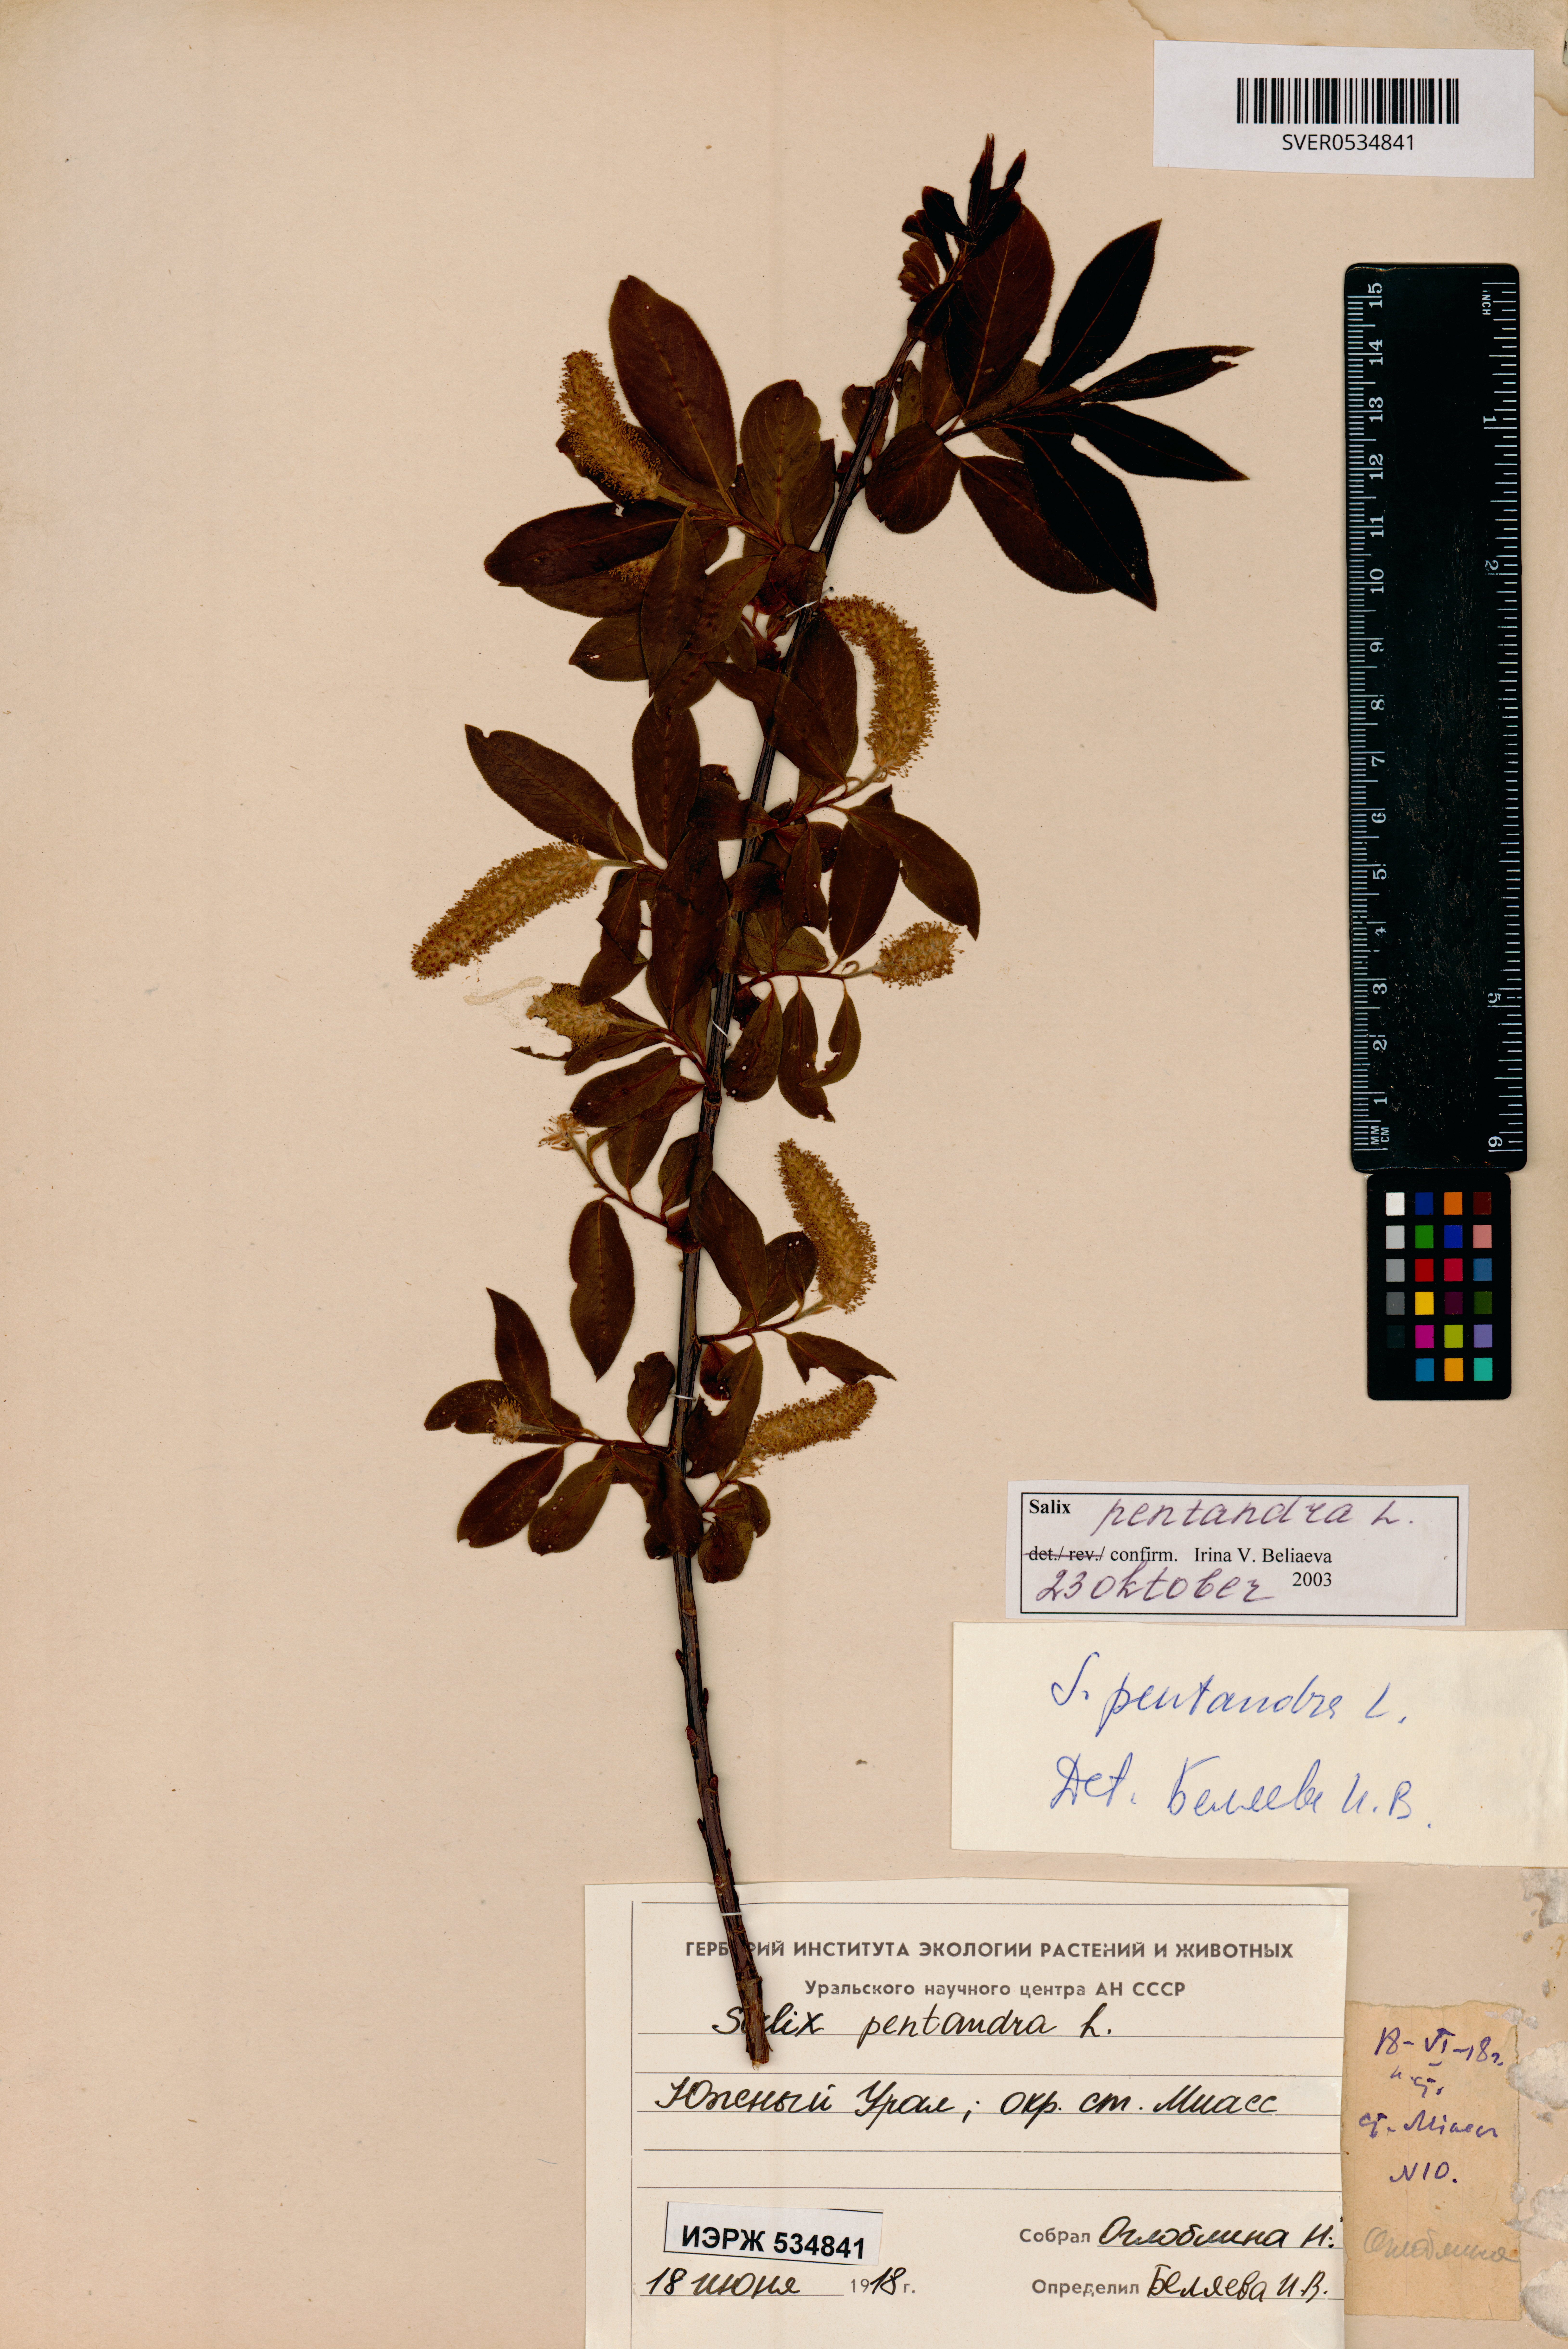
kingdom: Plantae
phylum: Tracheophyta
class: Magnoliopsida
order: Malpighiales
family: Salicaceae
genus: Salix
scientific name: Salix pentandra
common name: Bay willow
